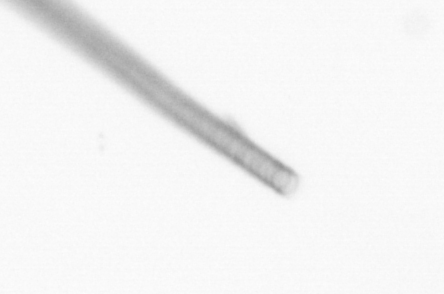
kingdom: Chromista
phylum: Ochrophyta
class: Bacillariophyceae
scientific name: Bacillariophyceae
